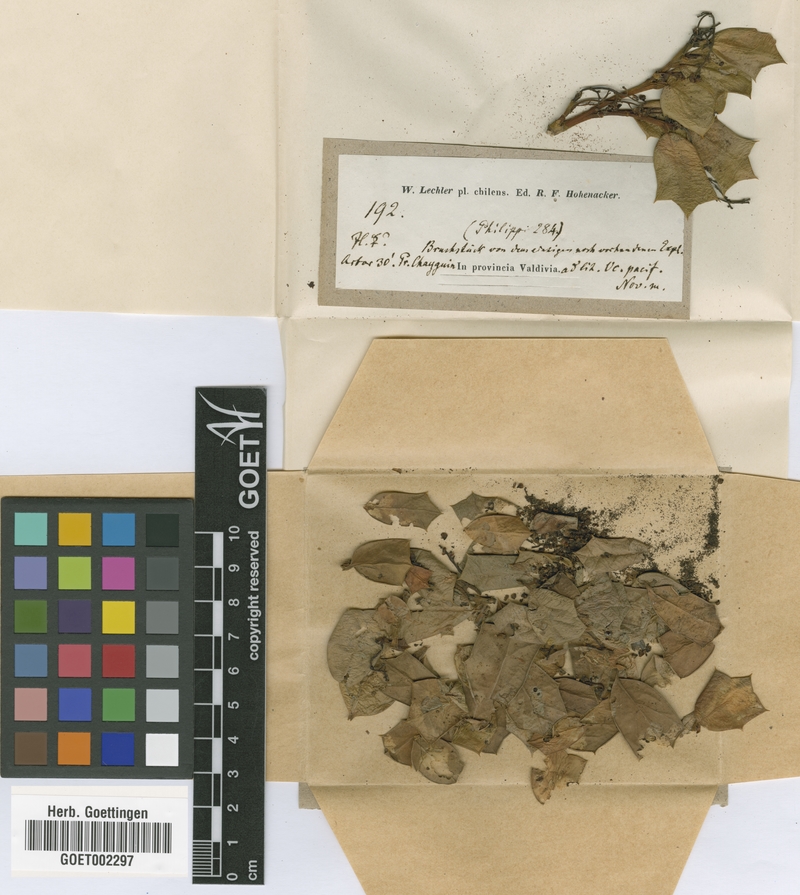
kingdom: Plantae
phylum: Tracheophyta
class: Magnoliopsida
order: Apiales
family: Griseliniaceae
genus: Griselinia
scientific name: Griselinia jodinifolia
